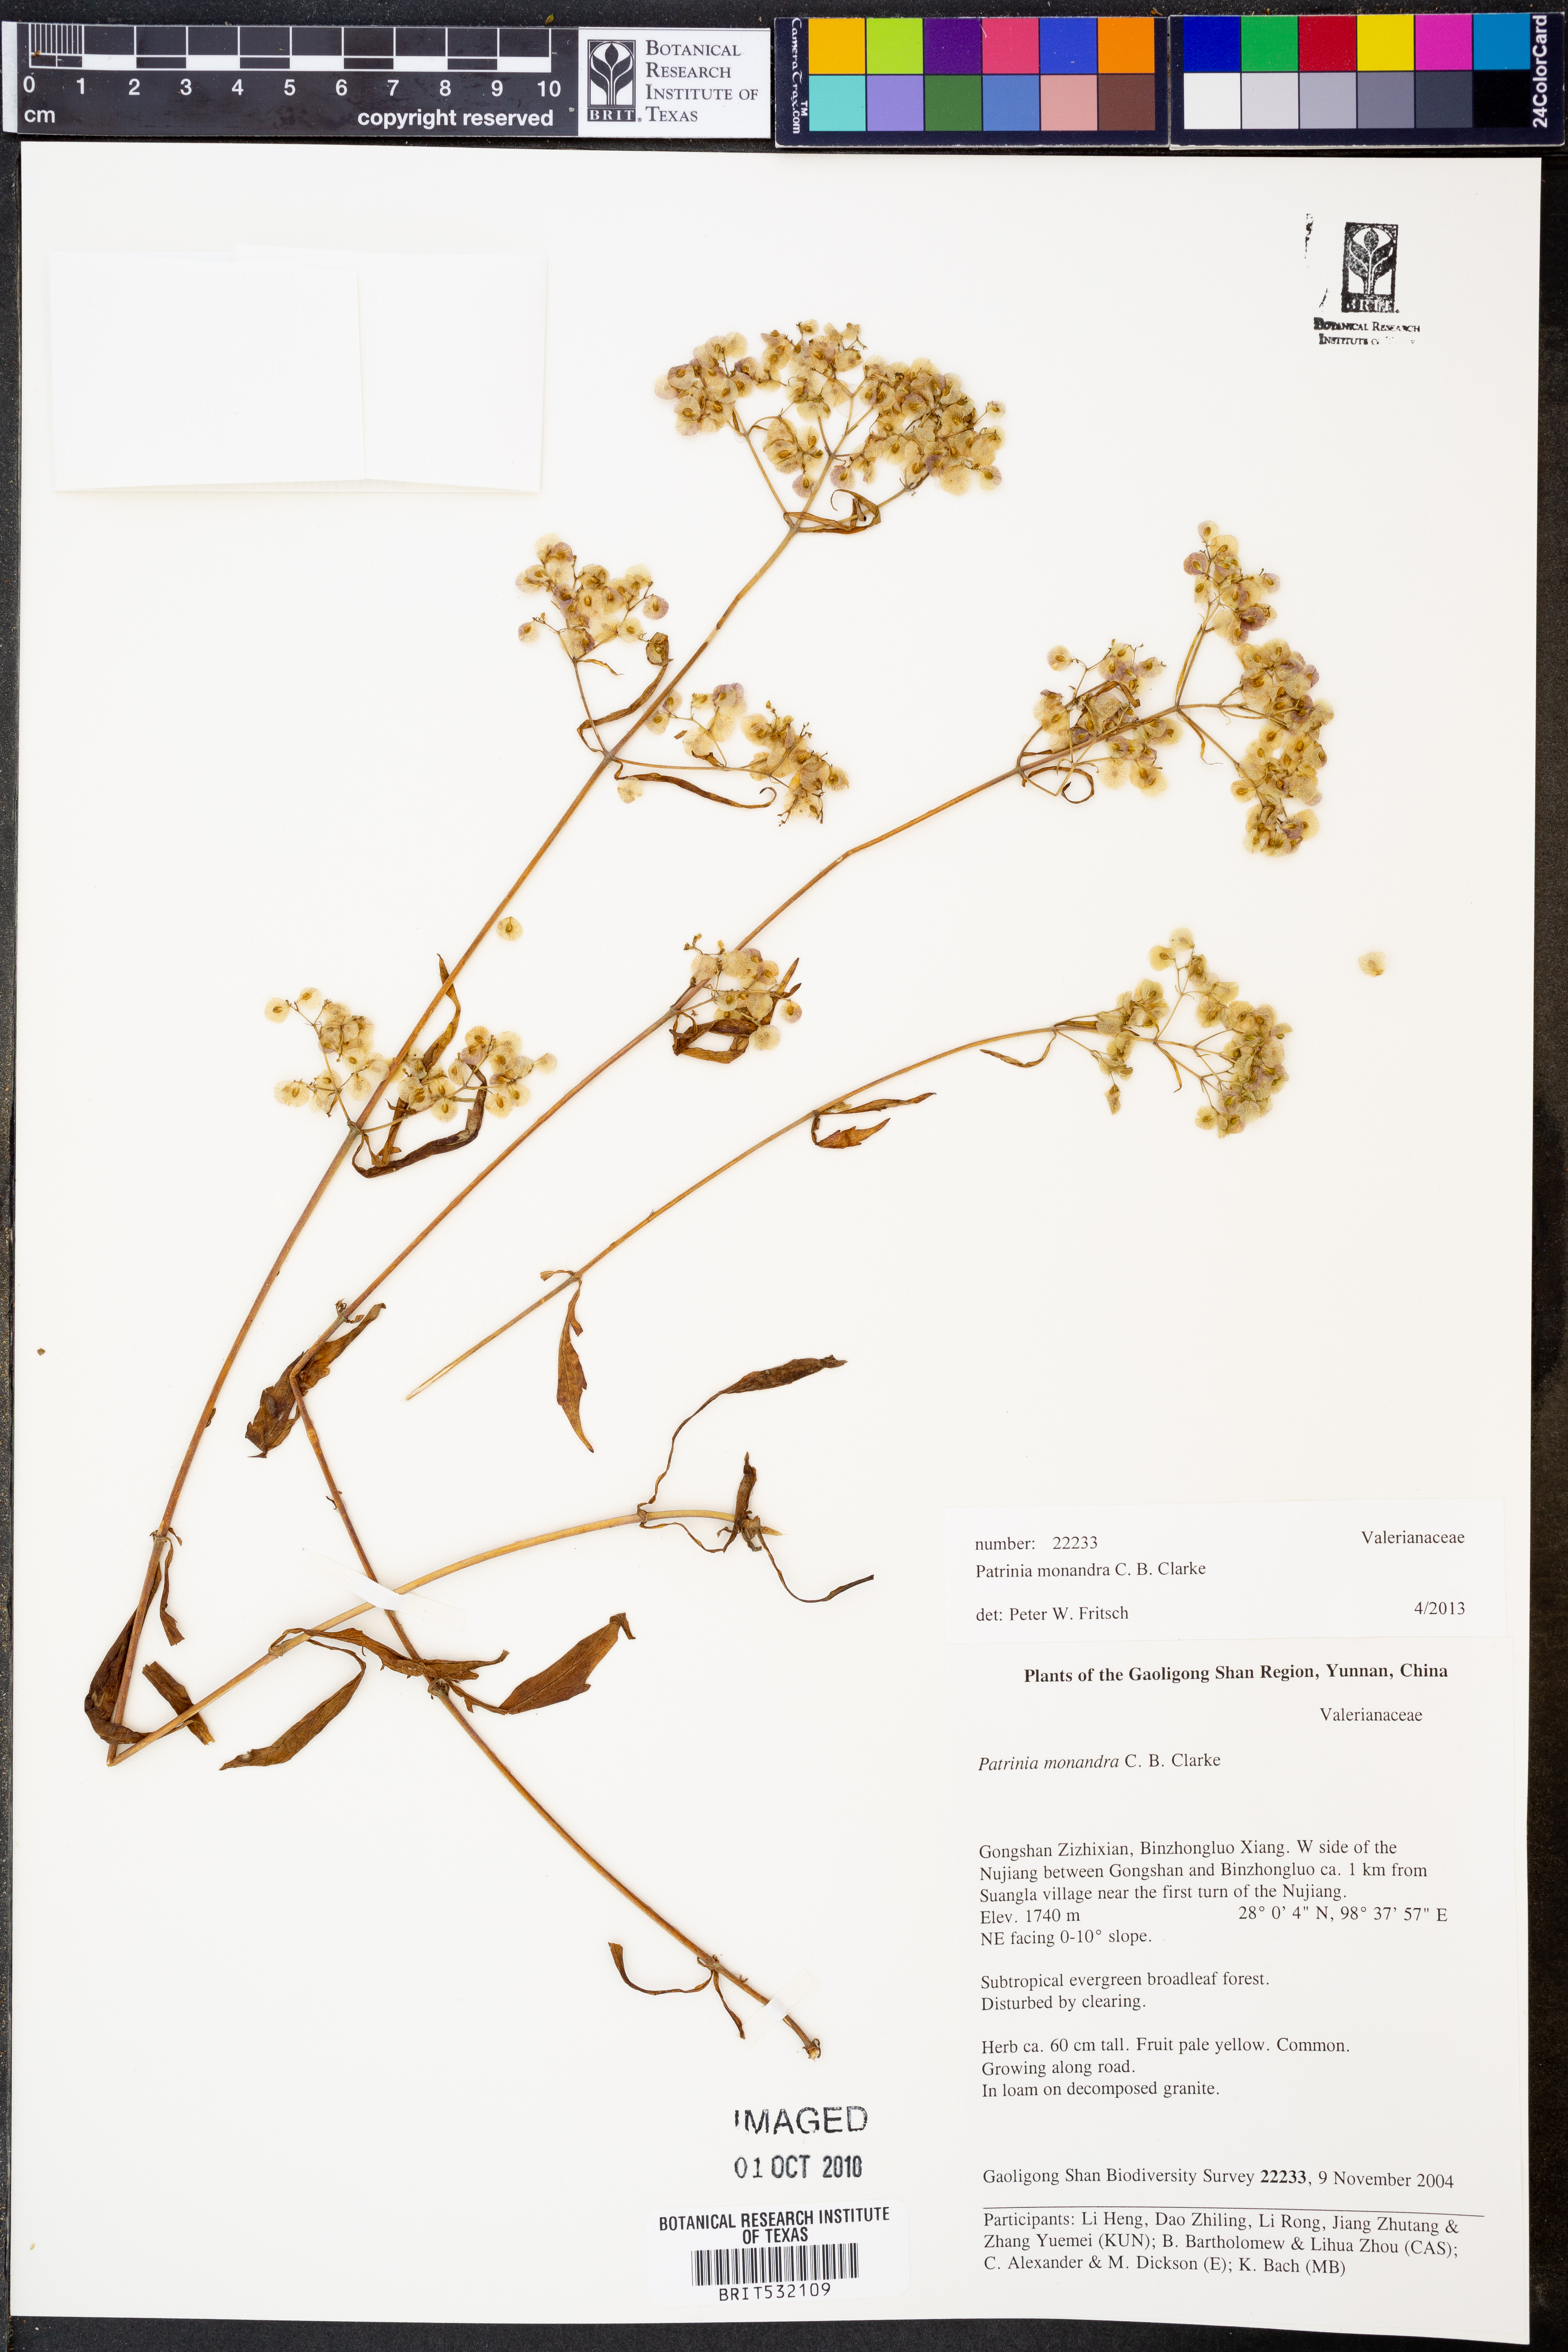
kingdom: Plantae
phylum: Tracheophyta
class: Magnoliopsida
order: Dipsacales
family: Caprifoliaceae
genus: Patrinia
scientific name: Patrinia monandra
